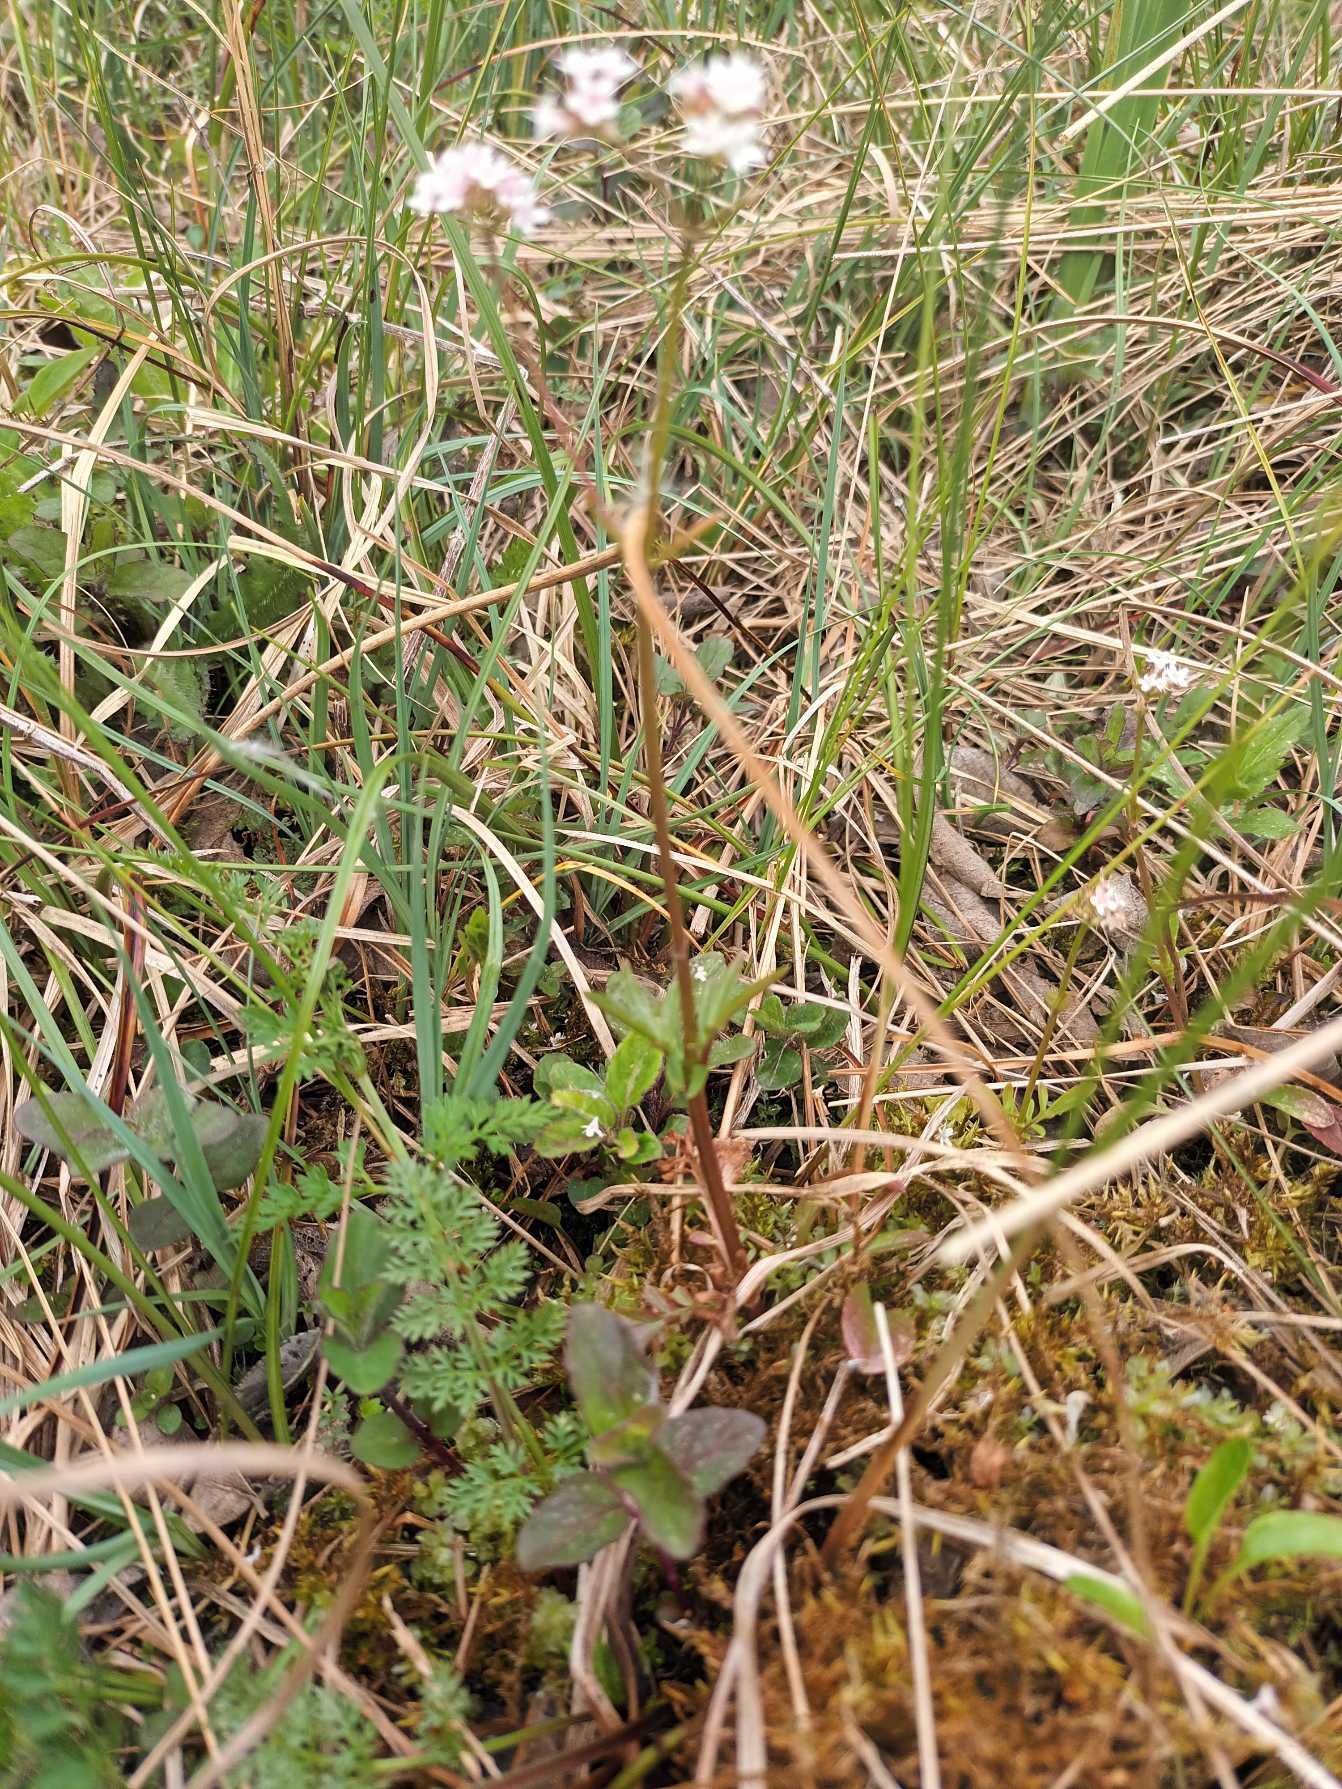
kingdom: Plantae
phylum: Tracheophyta
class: Magnoliopsida
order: Dipsacales
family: Caprifoliaceae
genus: Valeriana
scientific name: Valeriana dioica
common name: Tvebo baldrian
